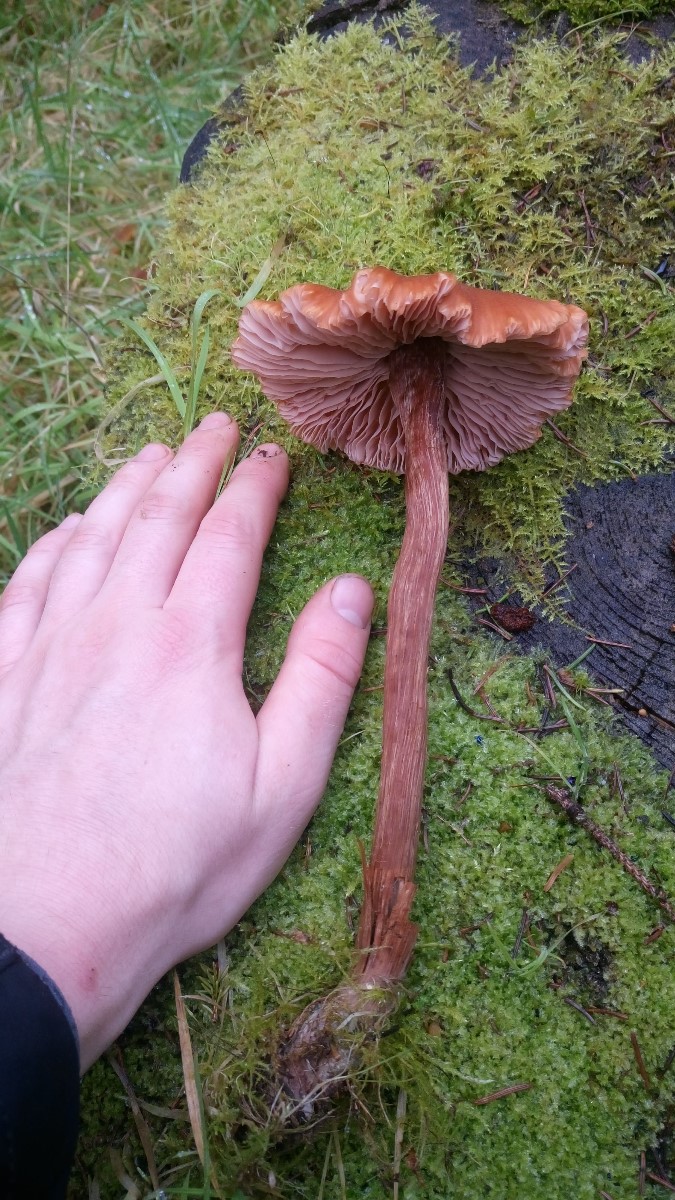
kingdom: Fungi
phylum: Basidiomycota
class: Agaricomycetes
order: Agaricales
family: Hydnangiaceae
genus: Laccaria
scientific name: Laccaria proxima
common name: stor ametysthat
